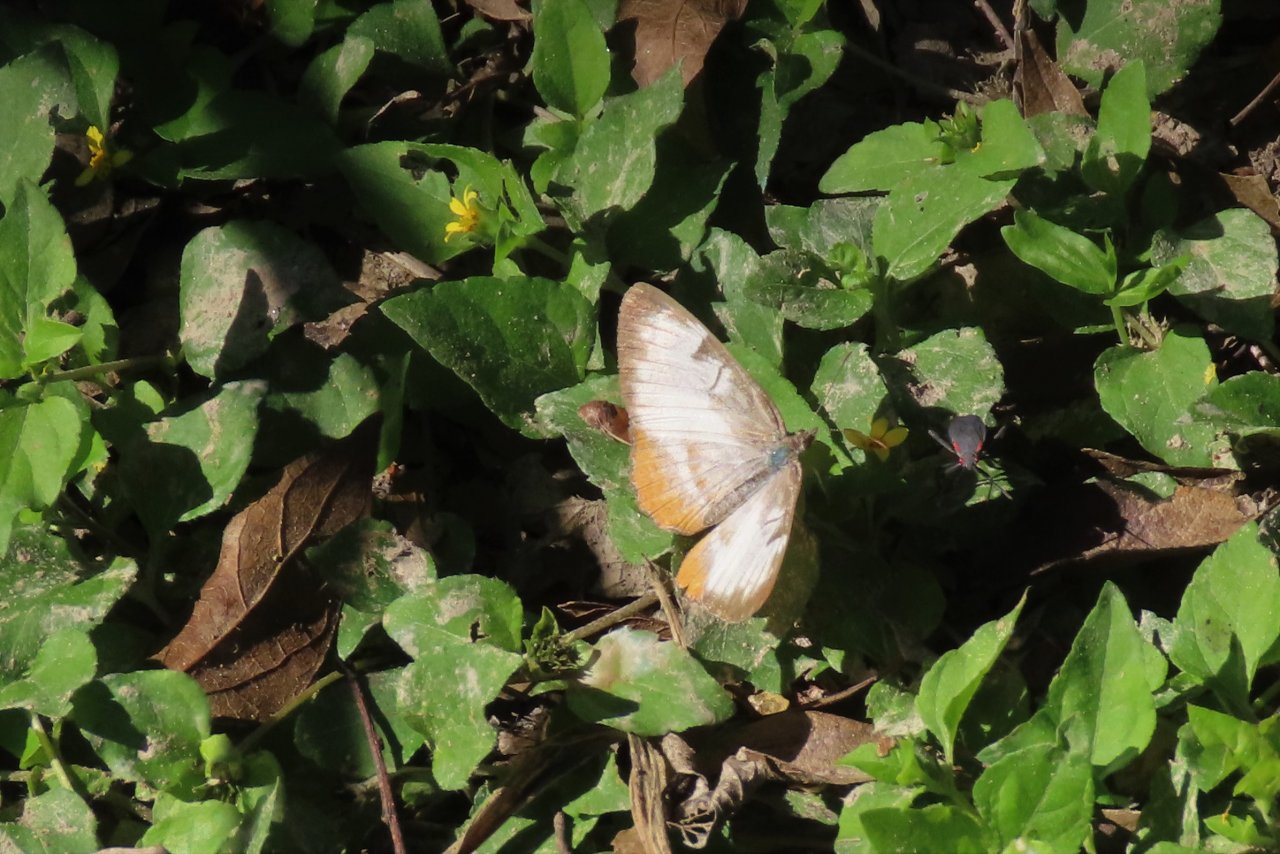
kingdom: Animalia
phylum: Arthropoda
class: Insecta
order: Lepidoptera
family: Nymphalidae
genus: Mestra
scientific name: Mestra amymone
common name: Common Mestra
